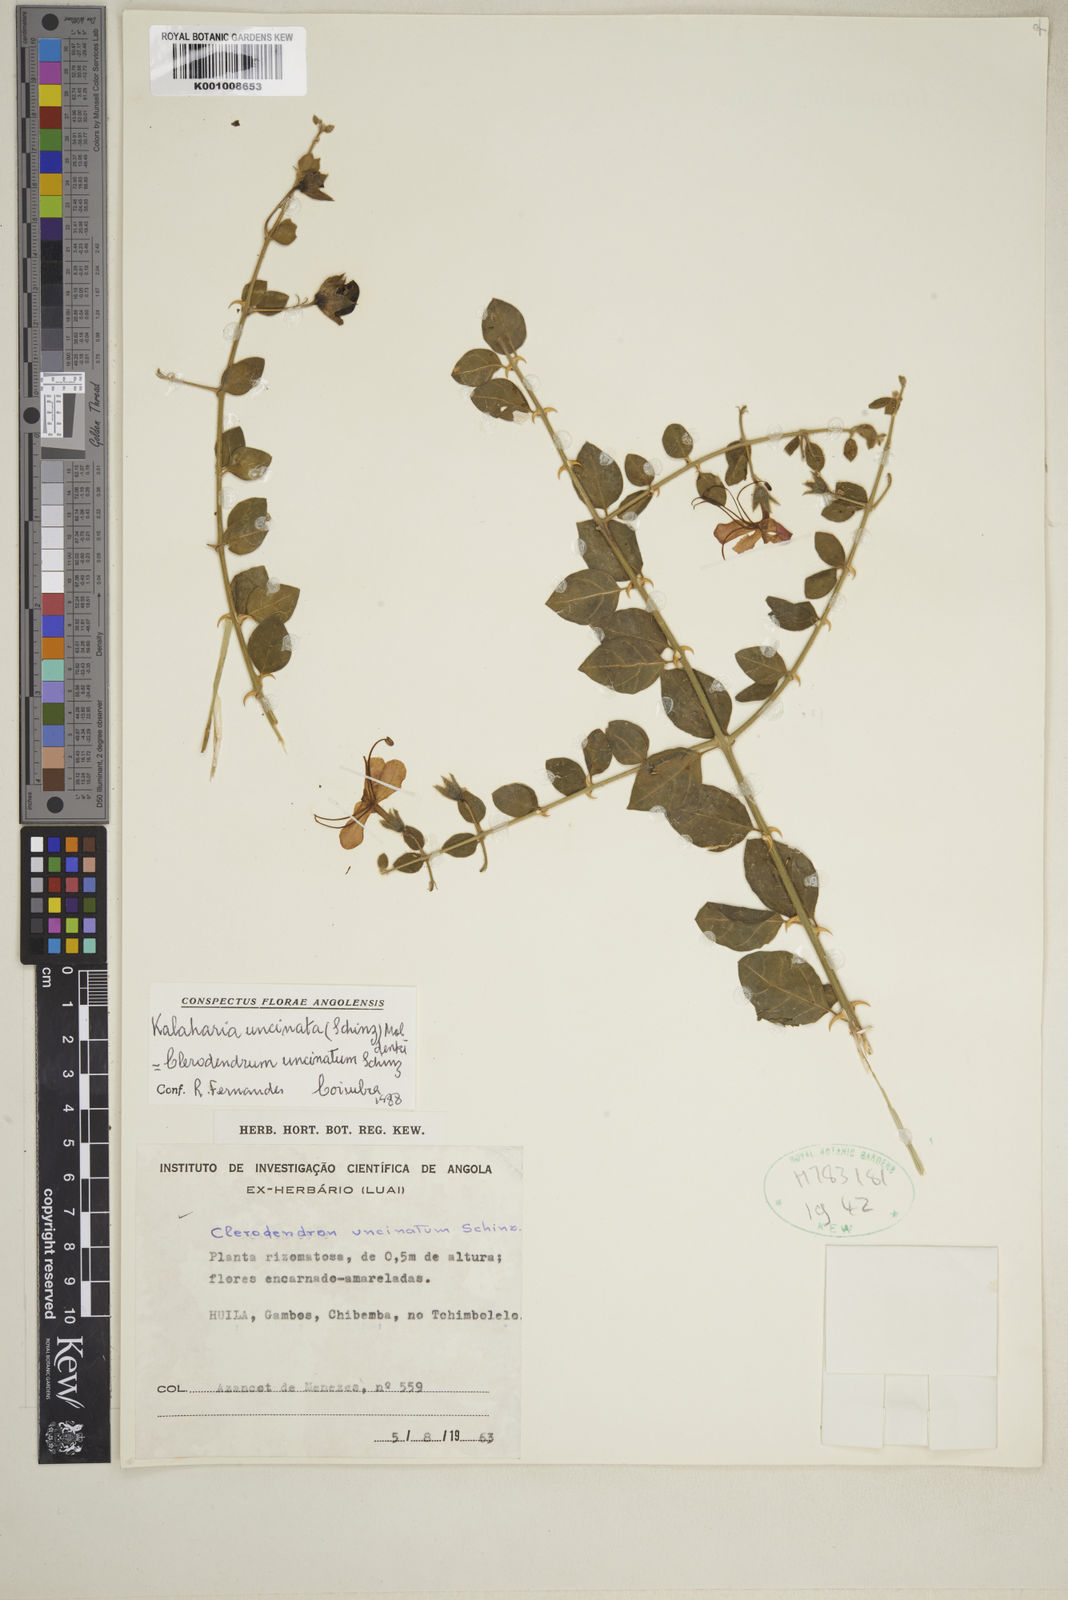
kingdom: Plantae
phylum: Tracheophyta
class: Magnoliopsida
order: Lamiales
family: Lamiaceae
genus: Kalaharia
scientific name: Kalaharia uncinata
